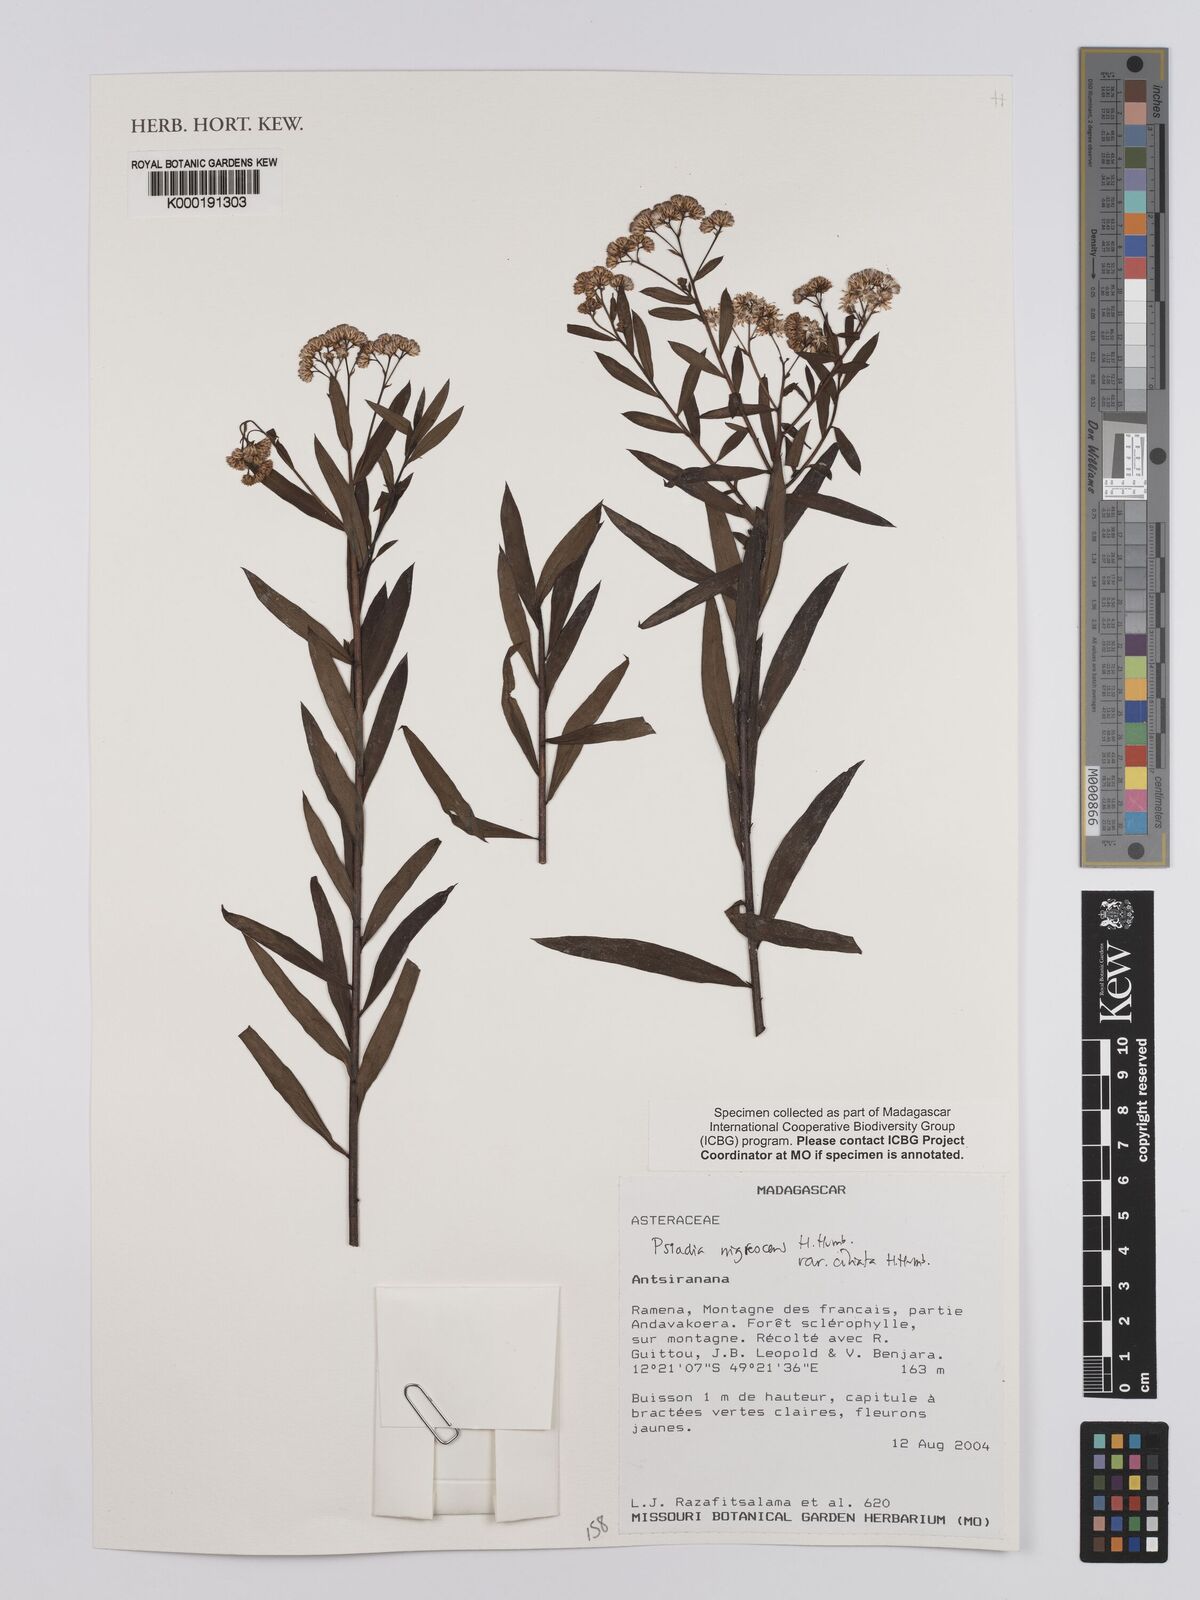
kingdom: Plantae
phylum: Tracheophyta
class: Magnoliopsida
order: Asterales
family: Asteraceae
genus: Psiadia
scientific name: Psiadia nigrescens
